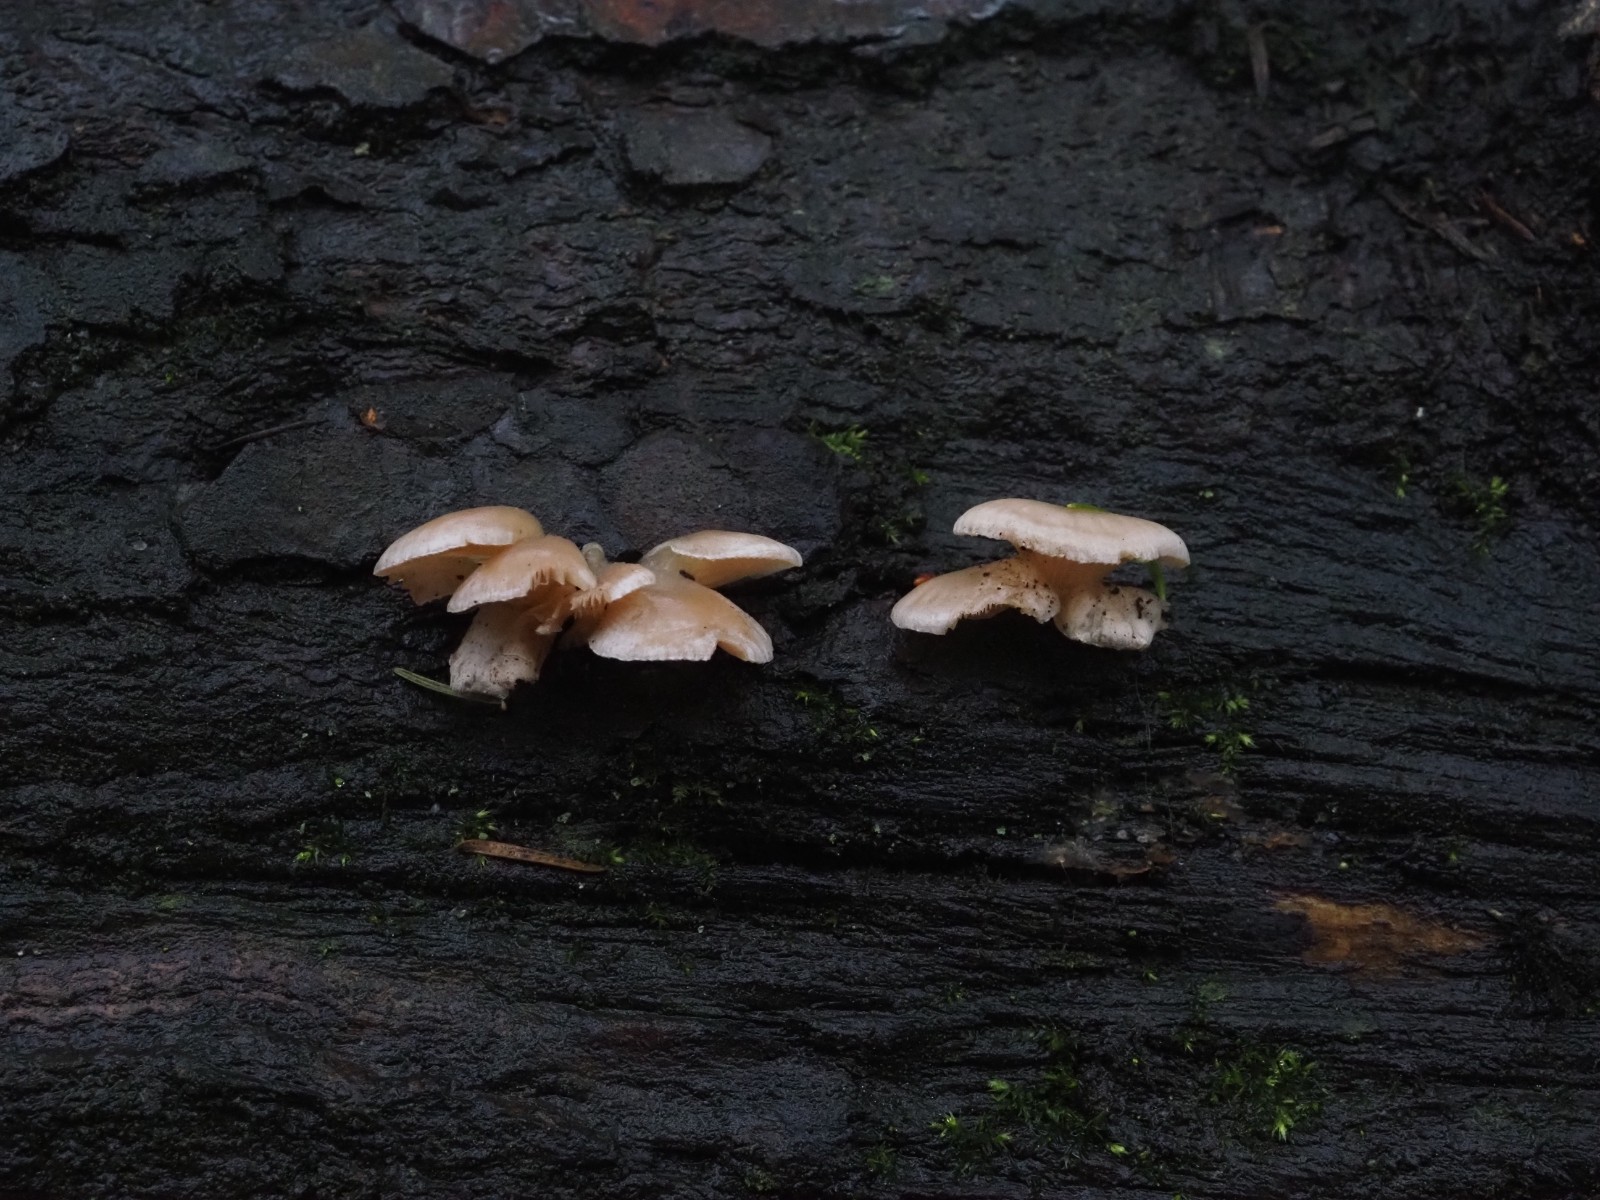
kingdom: Fungi
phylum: Basidiomycota
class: Agaricomycetes
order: Agaricales
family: Mycenaceae
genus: Panellus
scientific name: Panellus mitis
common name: mild epaulethat
